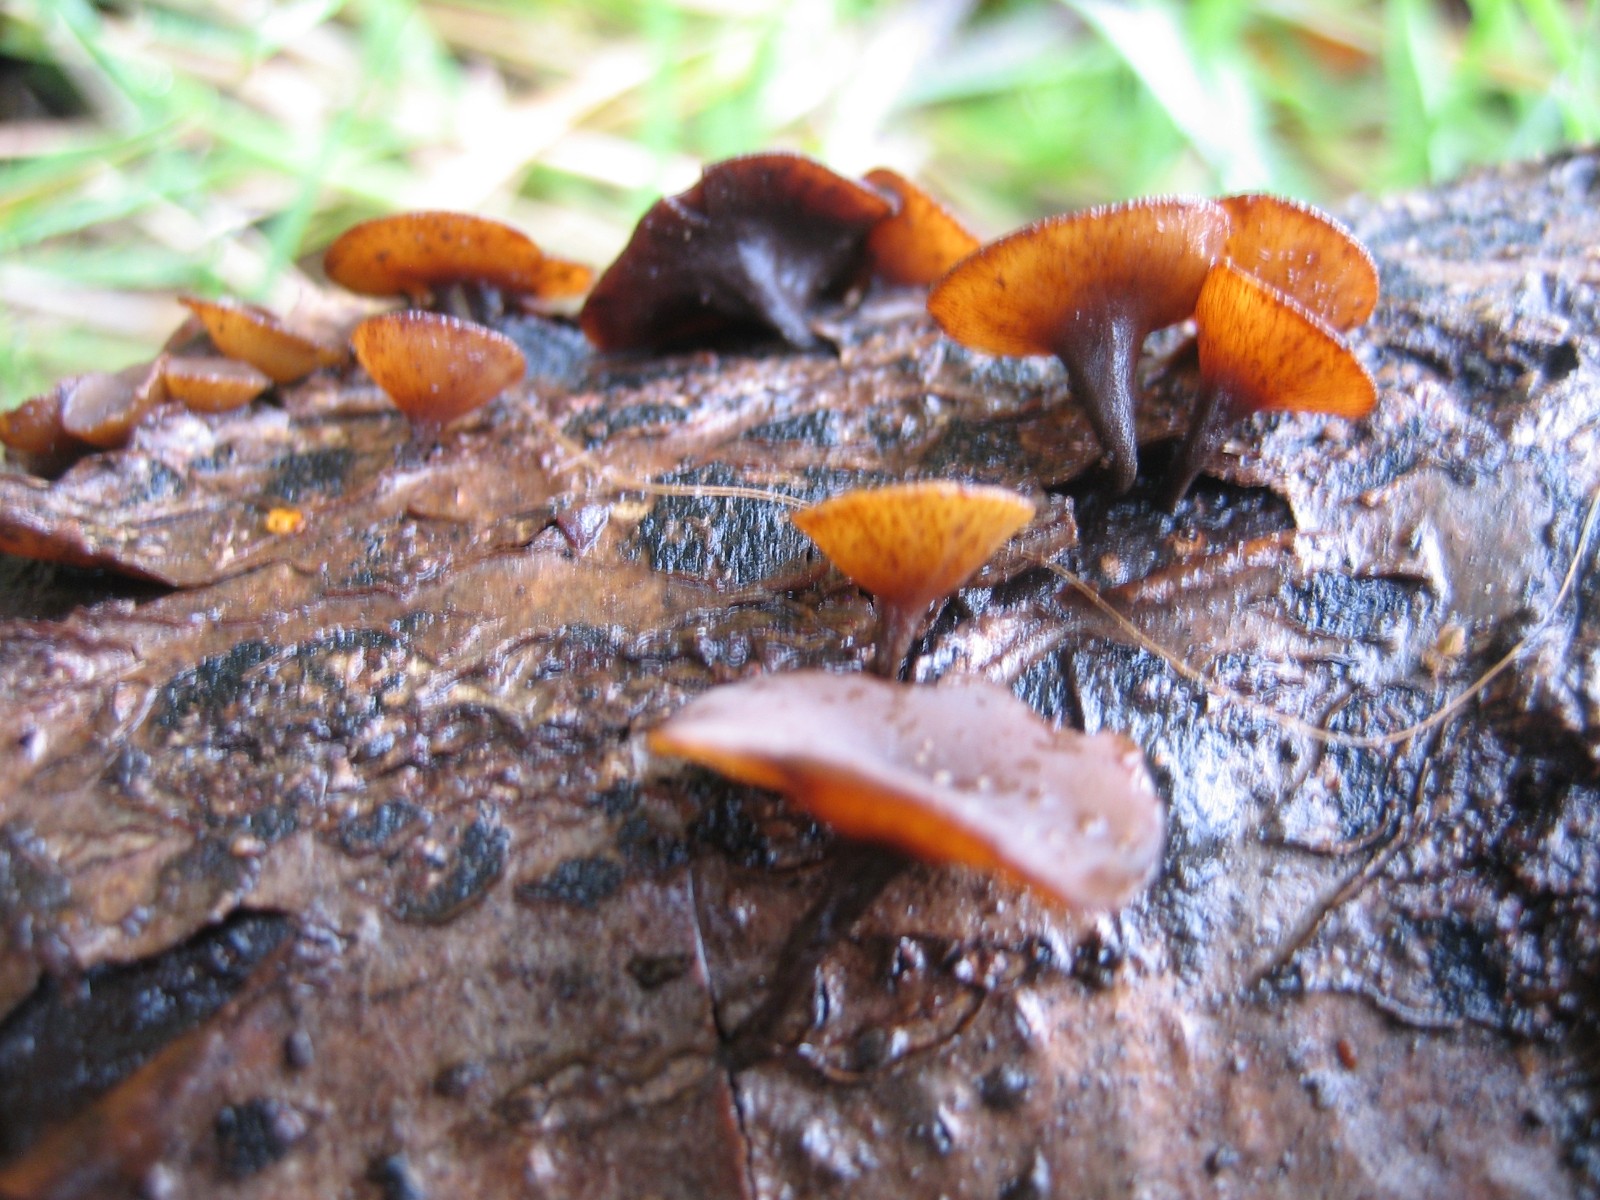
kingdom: Fungi
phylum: Ascomycota
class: Leotiomycetes
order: Helotiales
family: Rutstroemiaceae
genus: Rutstroemia
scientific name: Rutstroemia firma
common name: gren-brunskive
